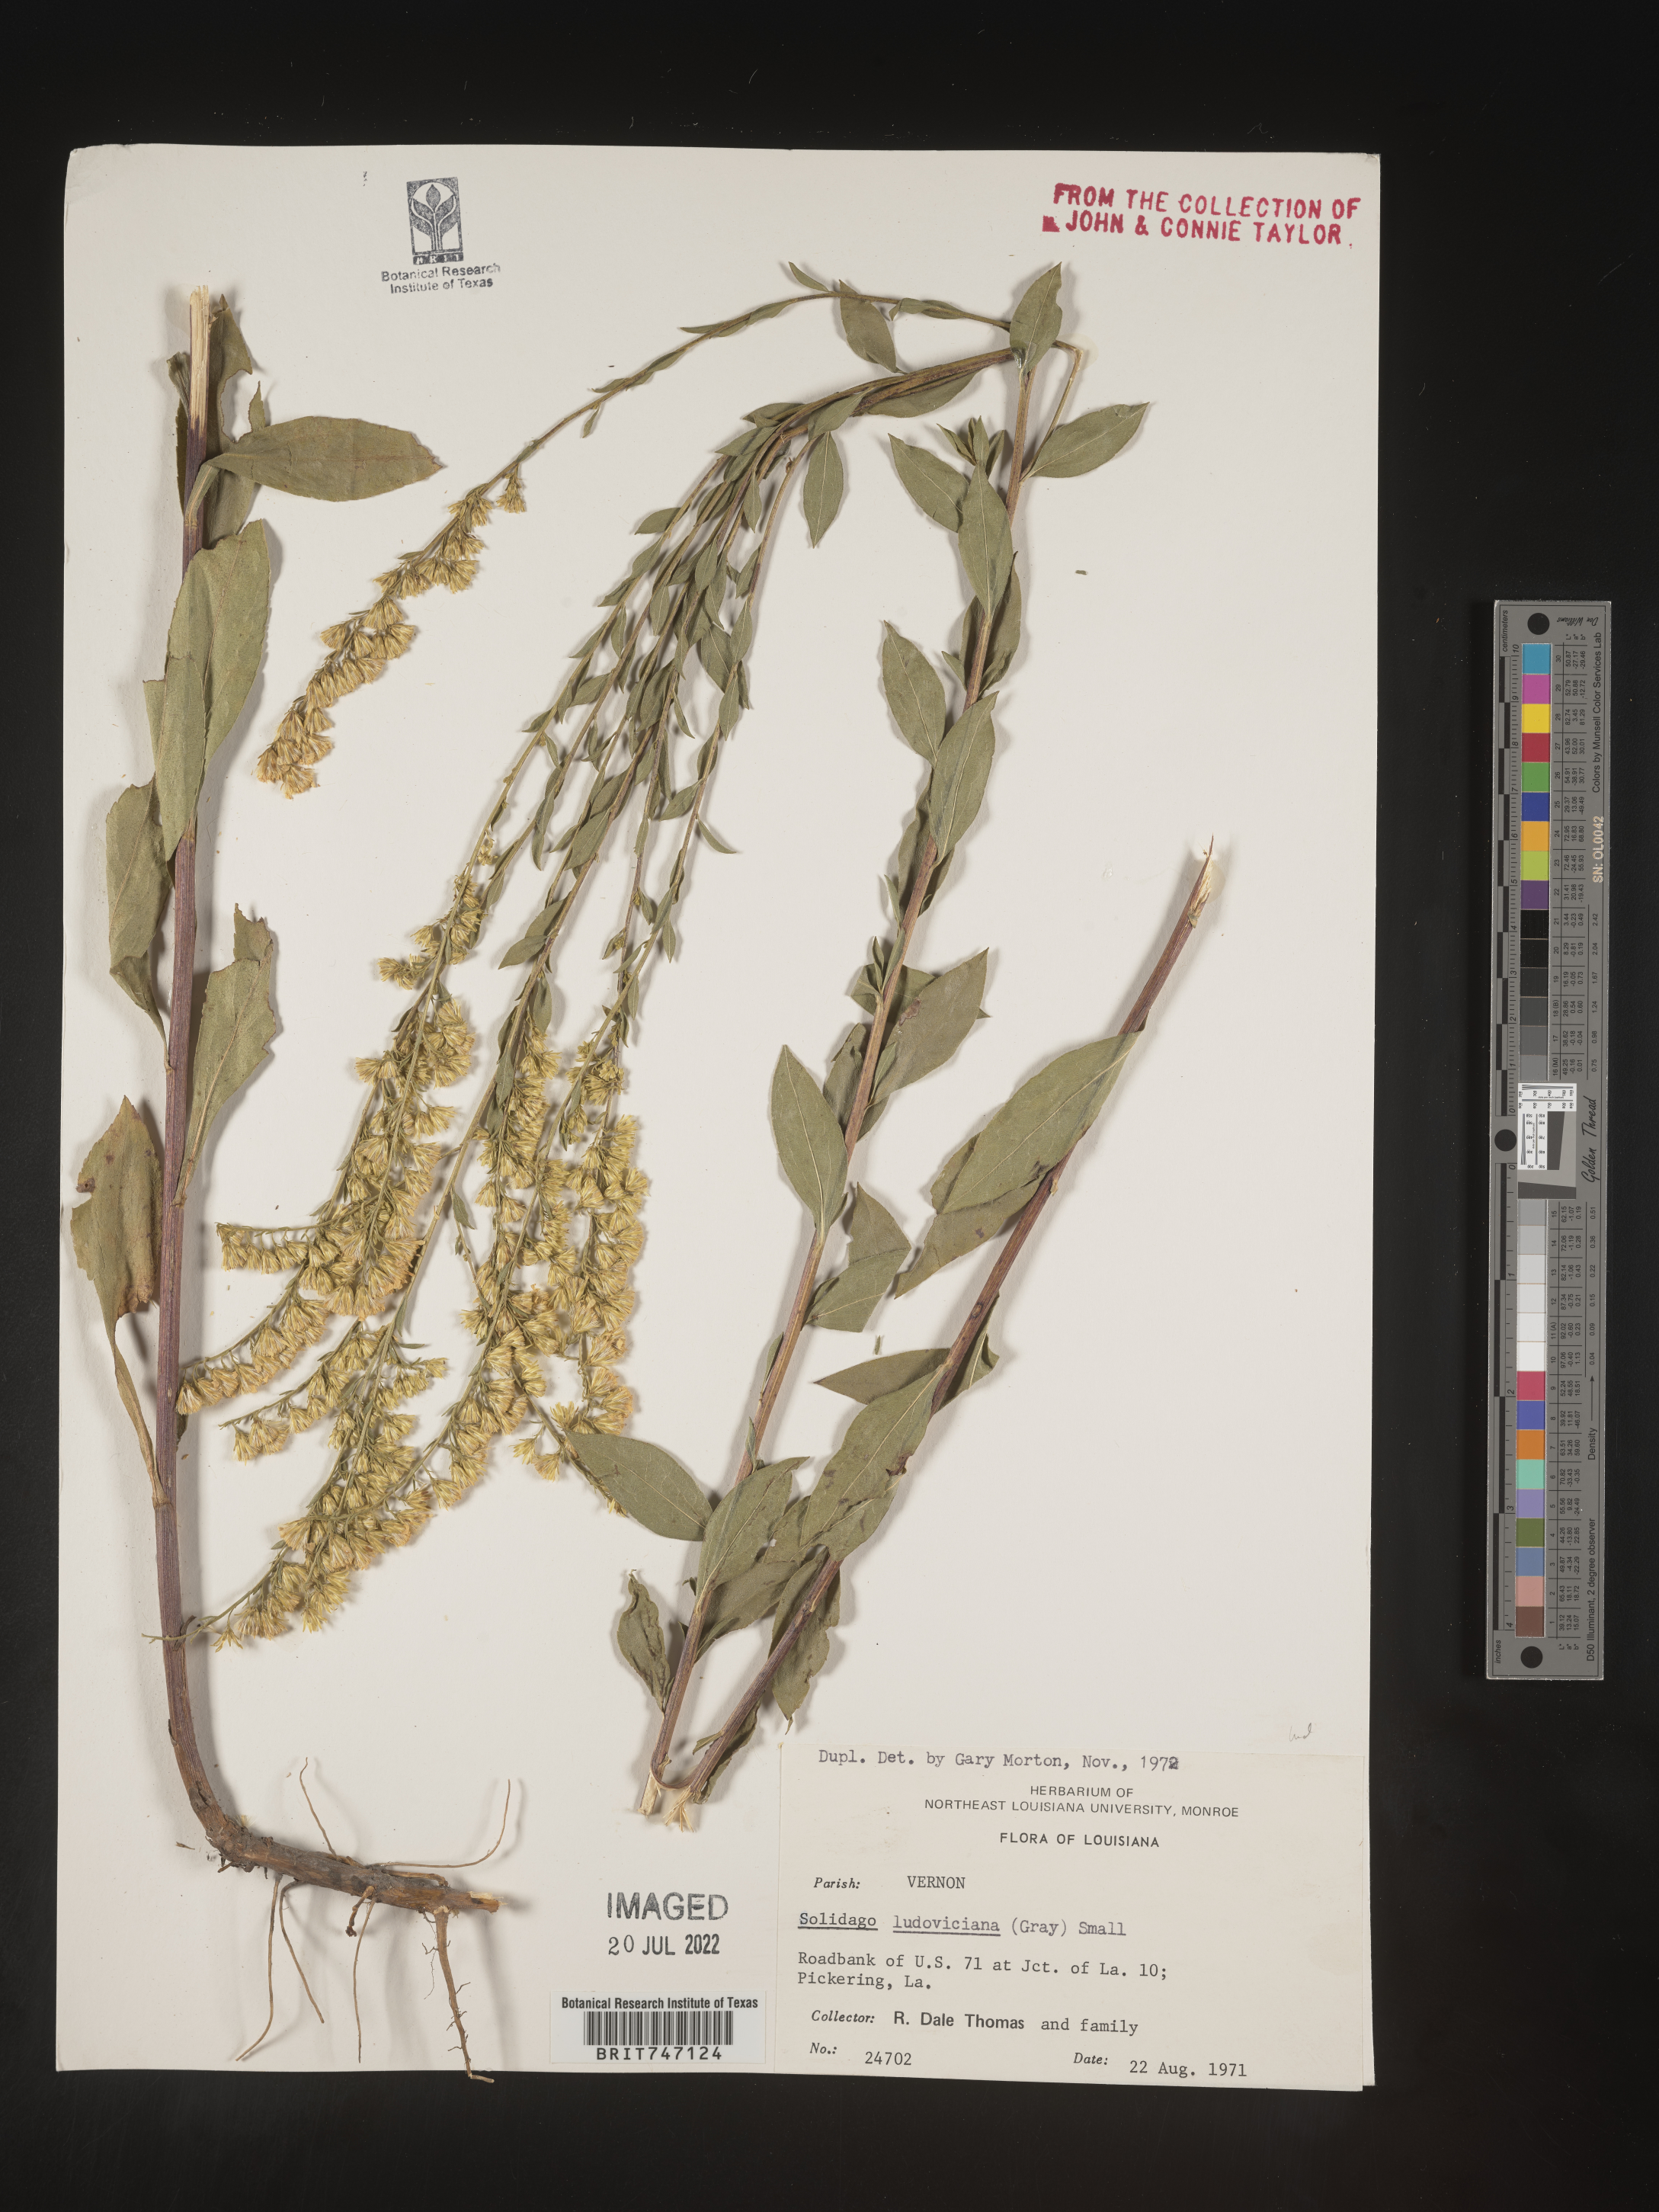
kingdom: Plantae
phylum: Tracheophyta
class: Magnoliopsida
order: Asterales
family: Asteraceae
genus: Solidago
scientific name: Solidago ludoviciana
